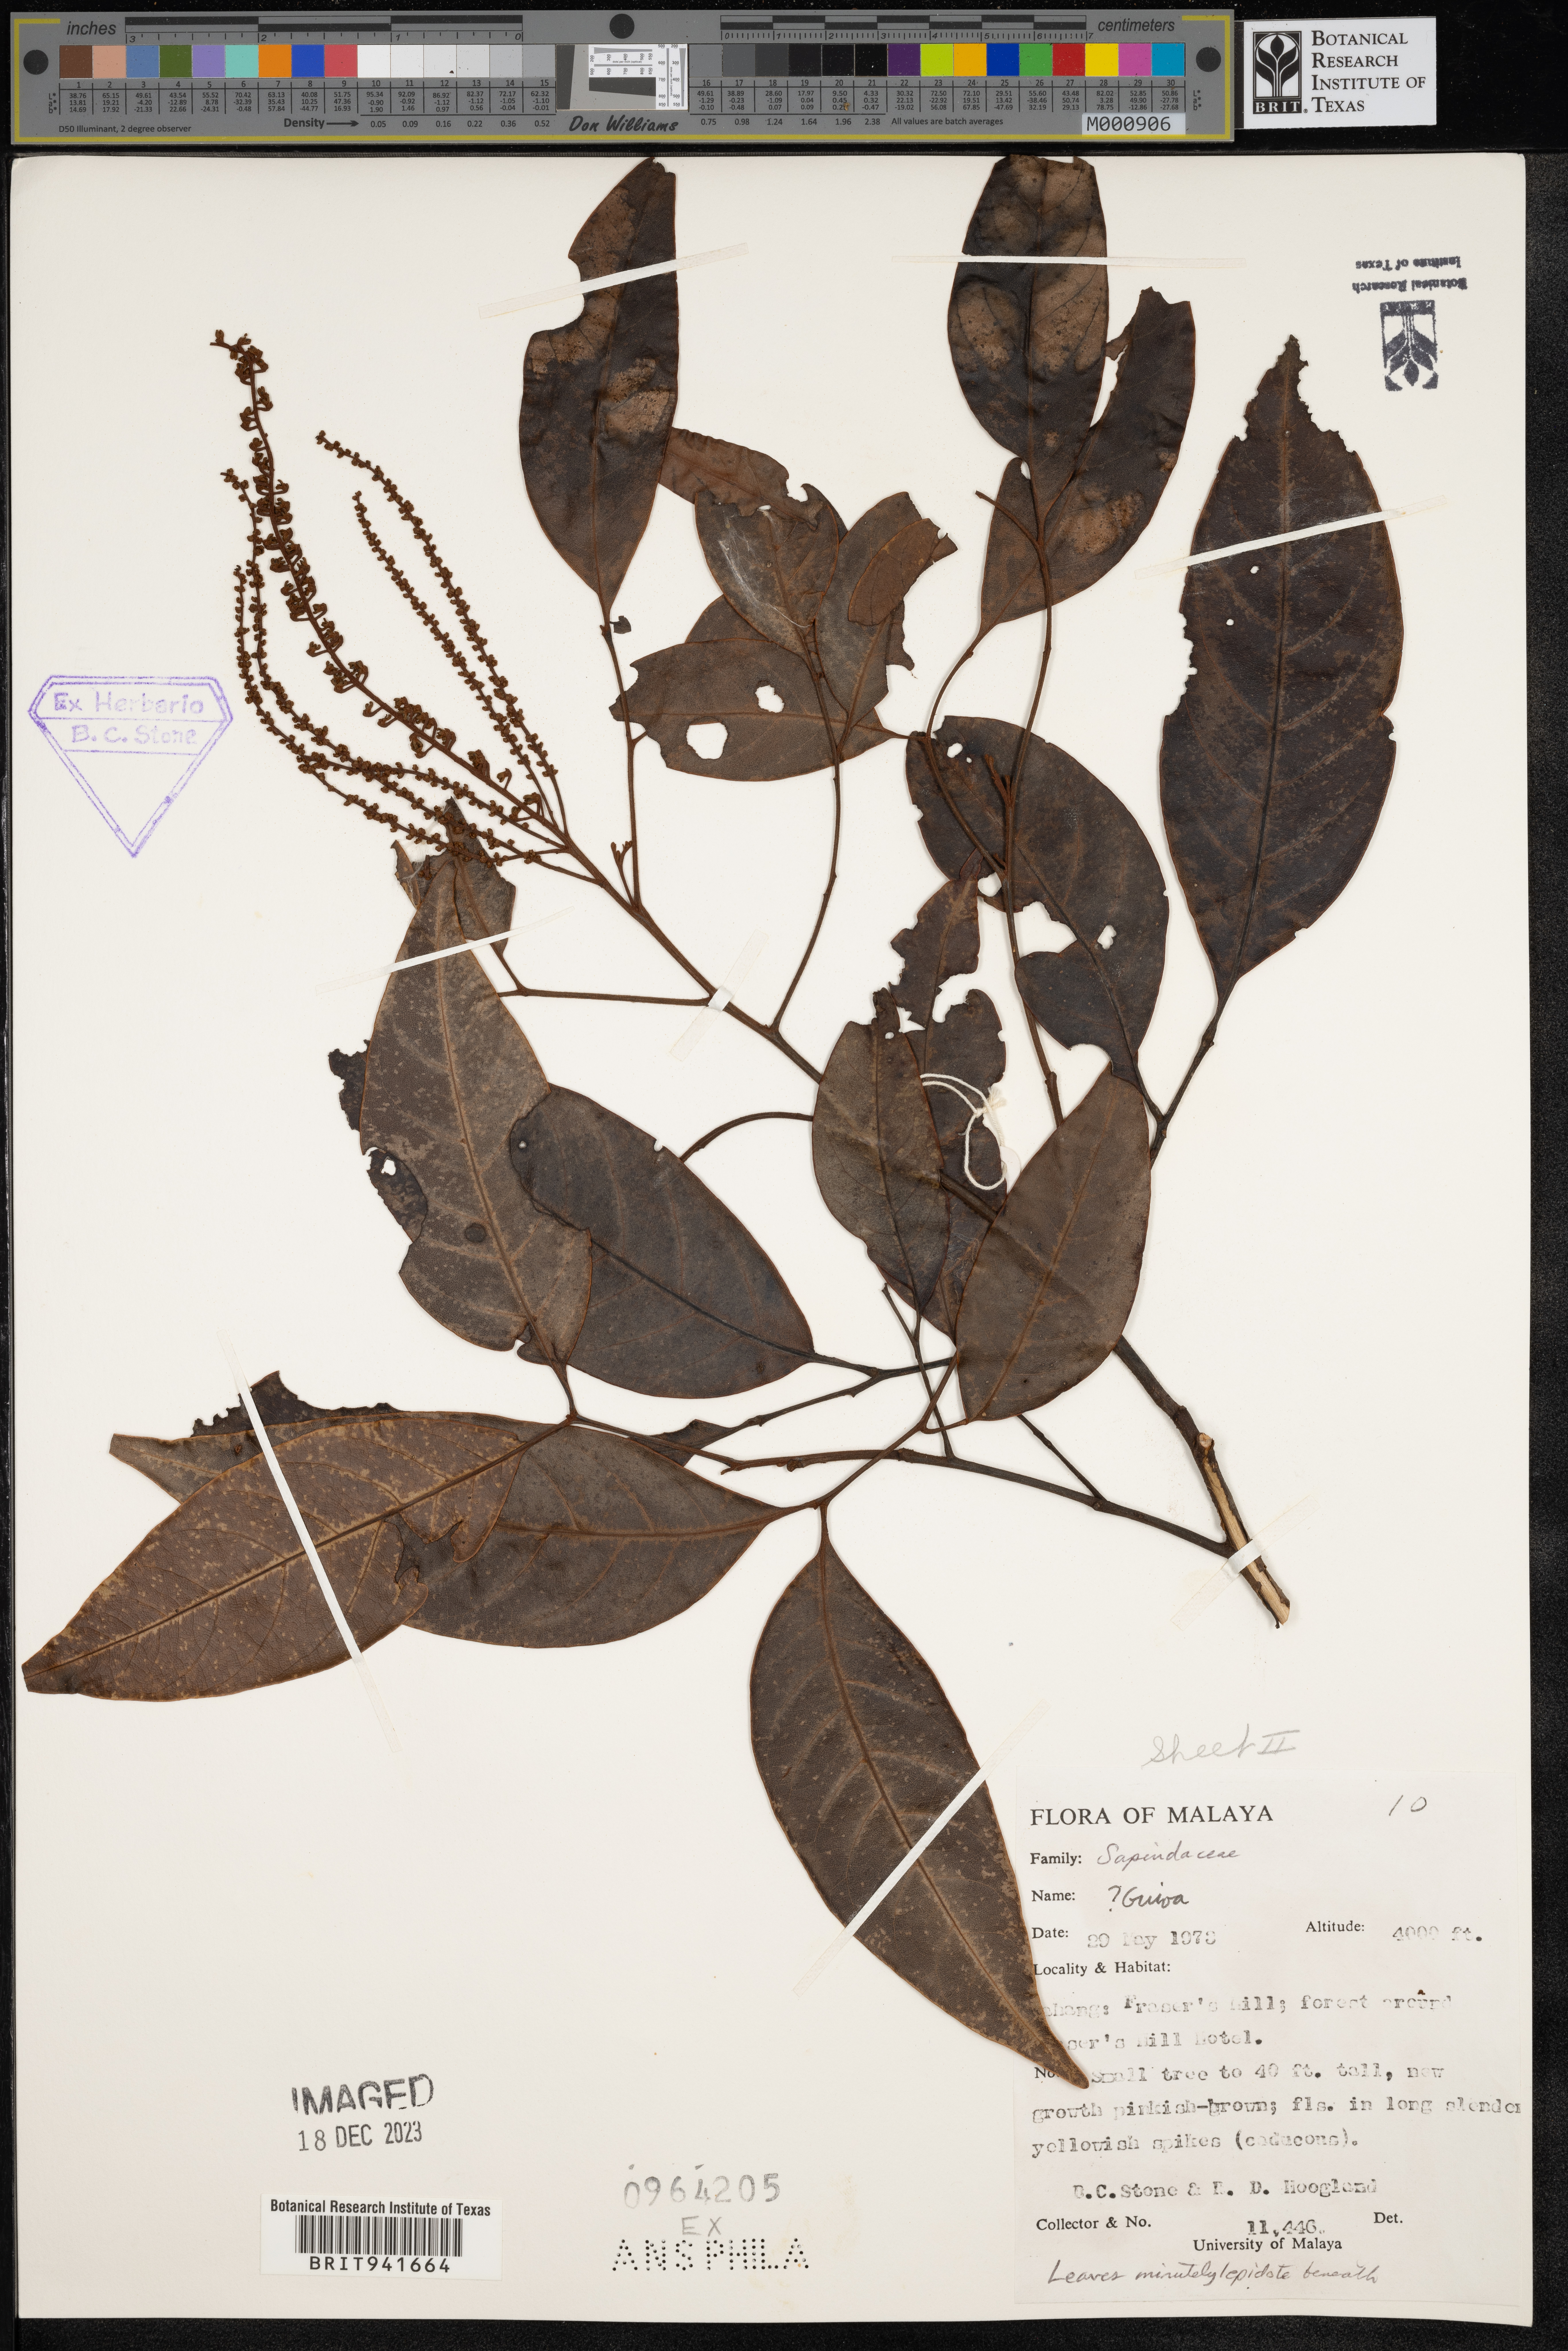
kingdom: Plantae
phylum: Tracheophyta
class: Magnoliopsida
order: Sapindales
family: Sapindaceae
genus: Guioa
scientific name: Guioa
